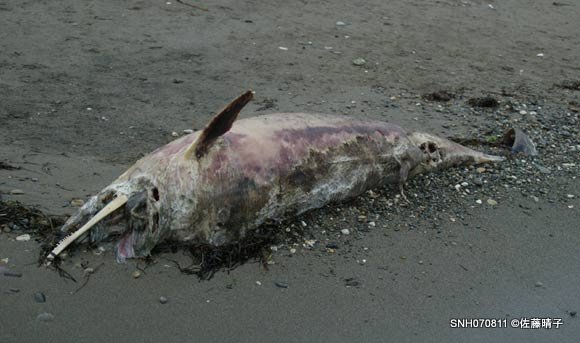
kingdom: Animalia
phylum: Chordata
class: Mammalia
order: Cetacea
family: Delphinidae
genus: Lagenorhynchus
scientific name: Lagenorhynchus obliquidens
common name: Pacific white-sided dolphin
